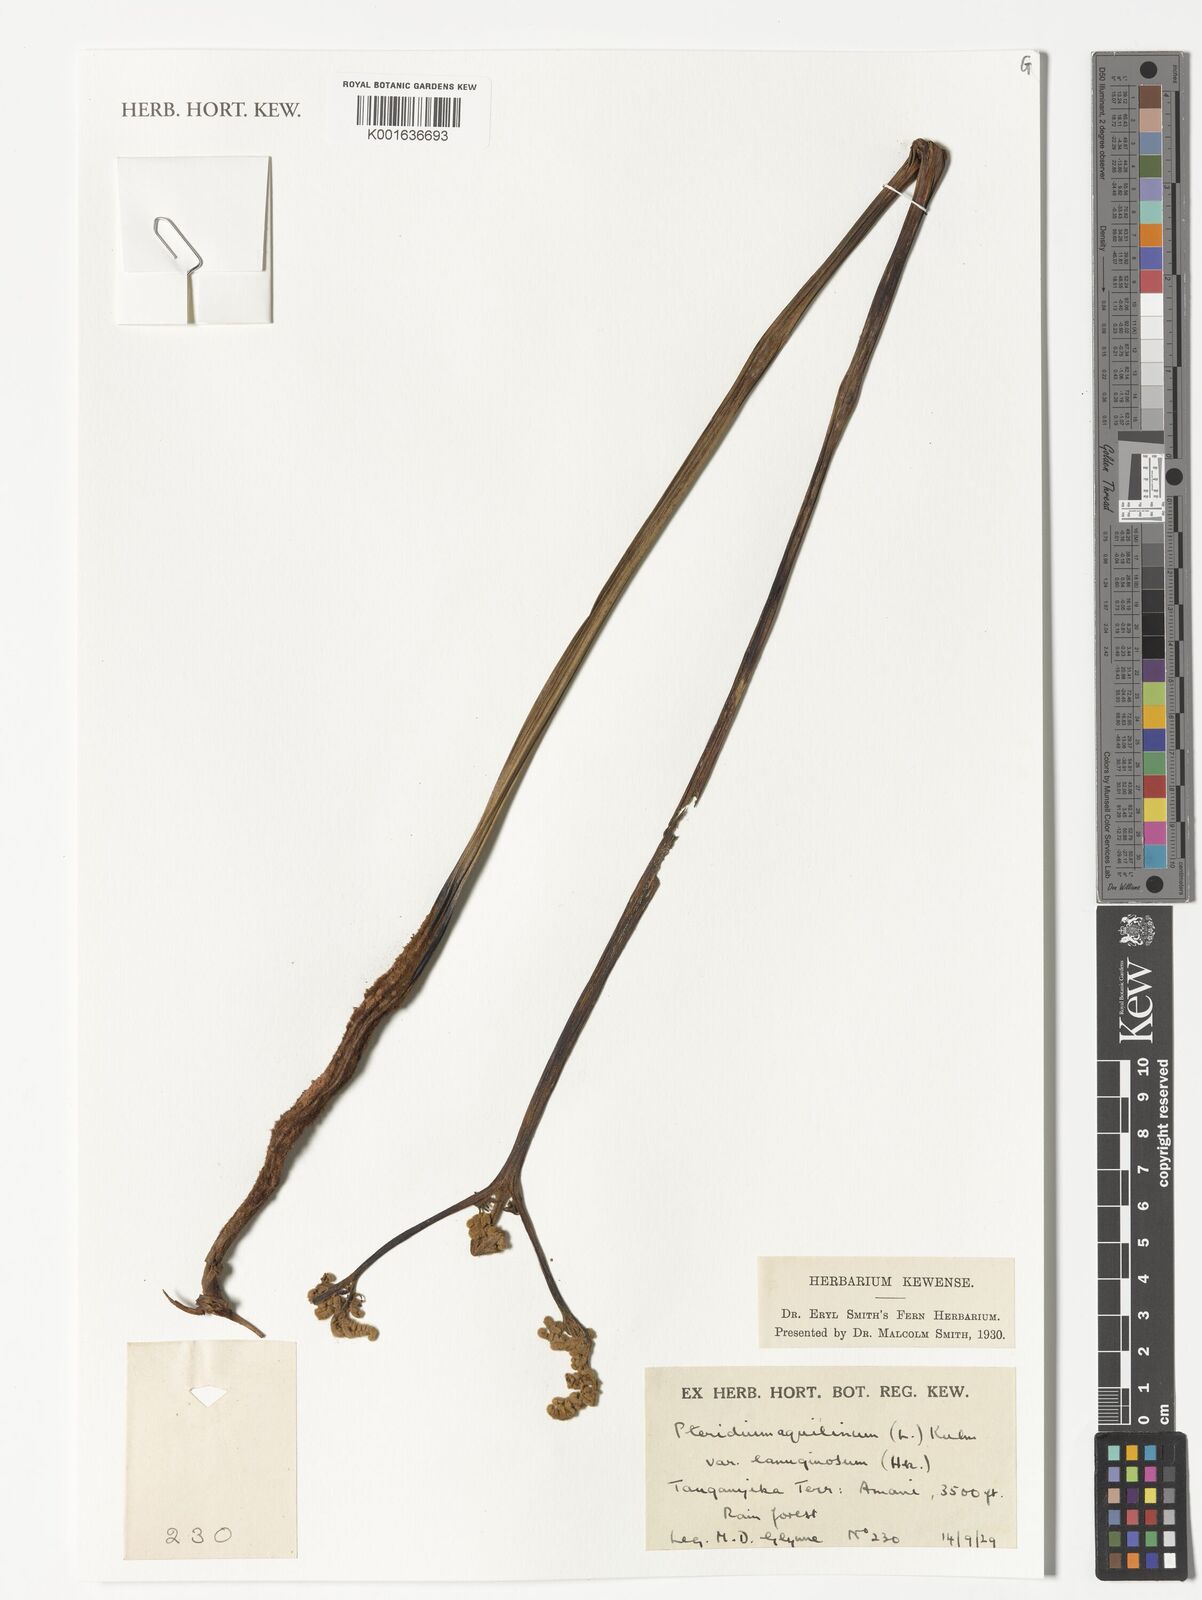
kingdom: Plantae
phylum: Tracheophyta
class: Polypodiopsida
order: Polypodiales
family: Dennstaedtiaceae
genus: Pteridium
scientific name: Pteridium aquilinum
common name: Bracken
